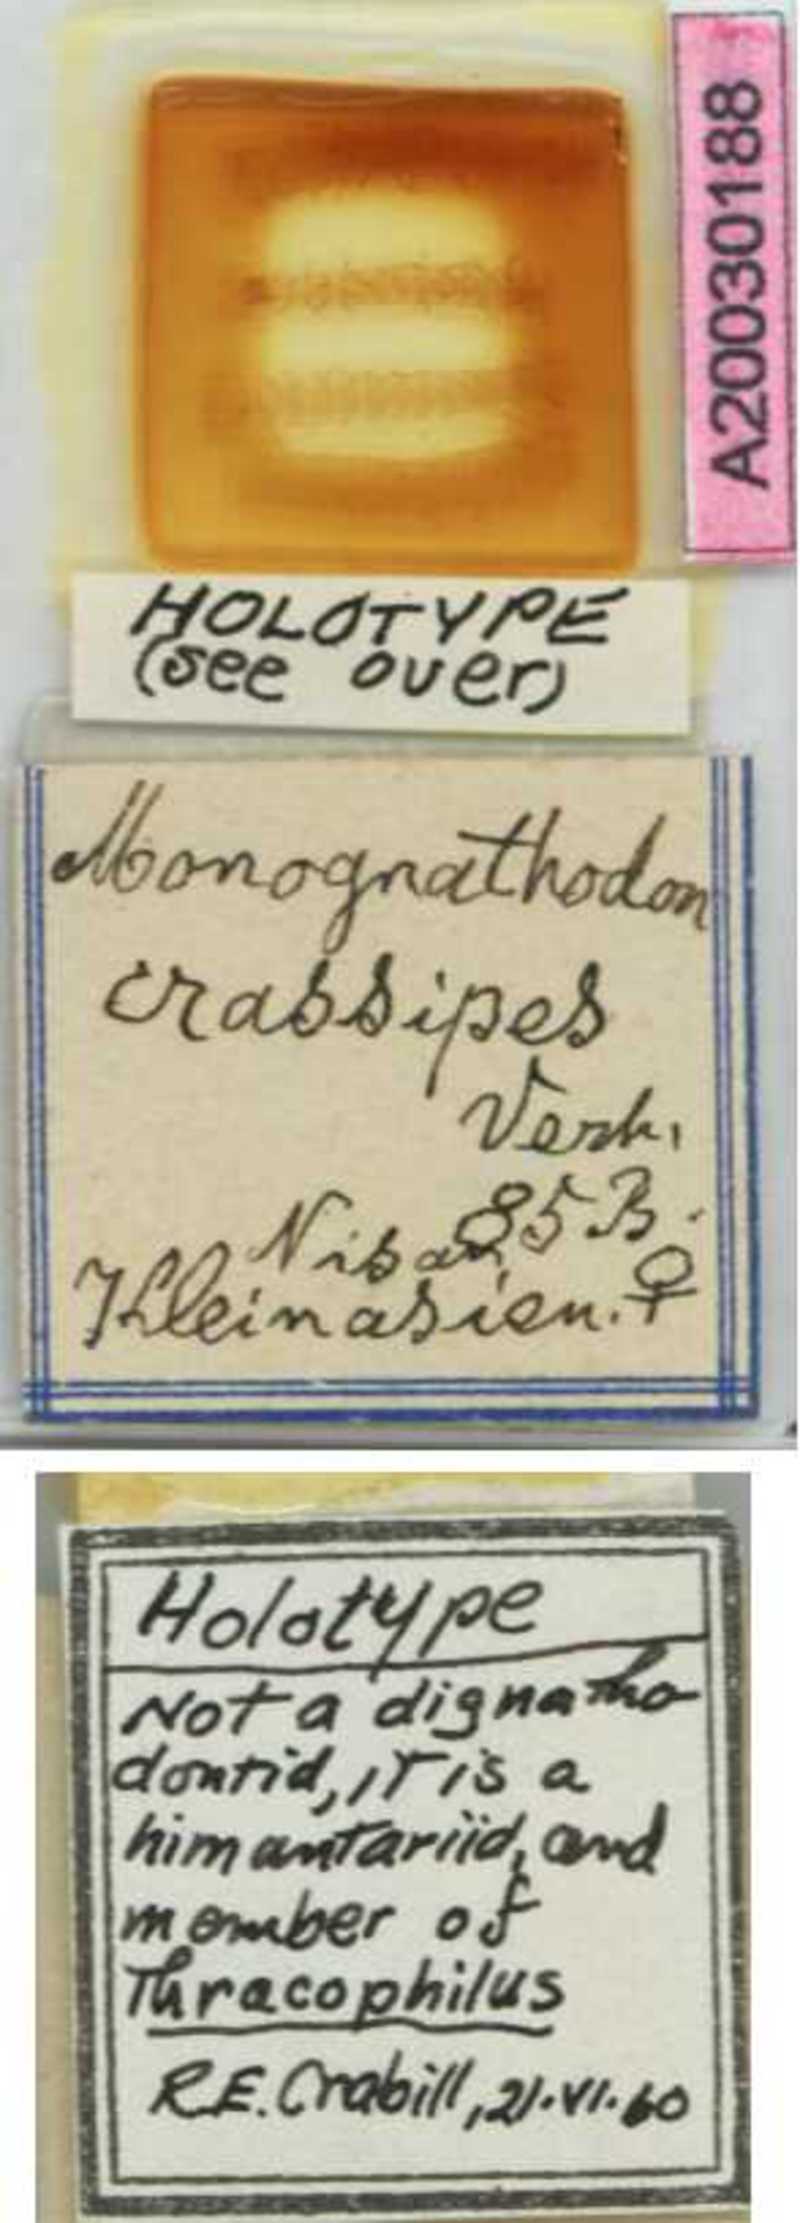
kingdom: Animalia
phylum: Arthropoda
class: Chilopoda
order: Geophilomorpha
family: Himantariidae
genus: Thracophilus
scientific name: Thracophilus
